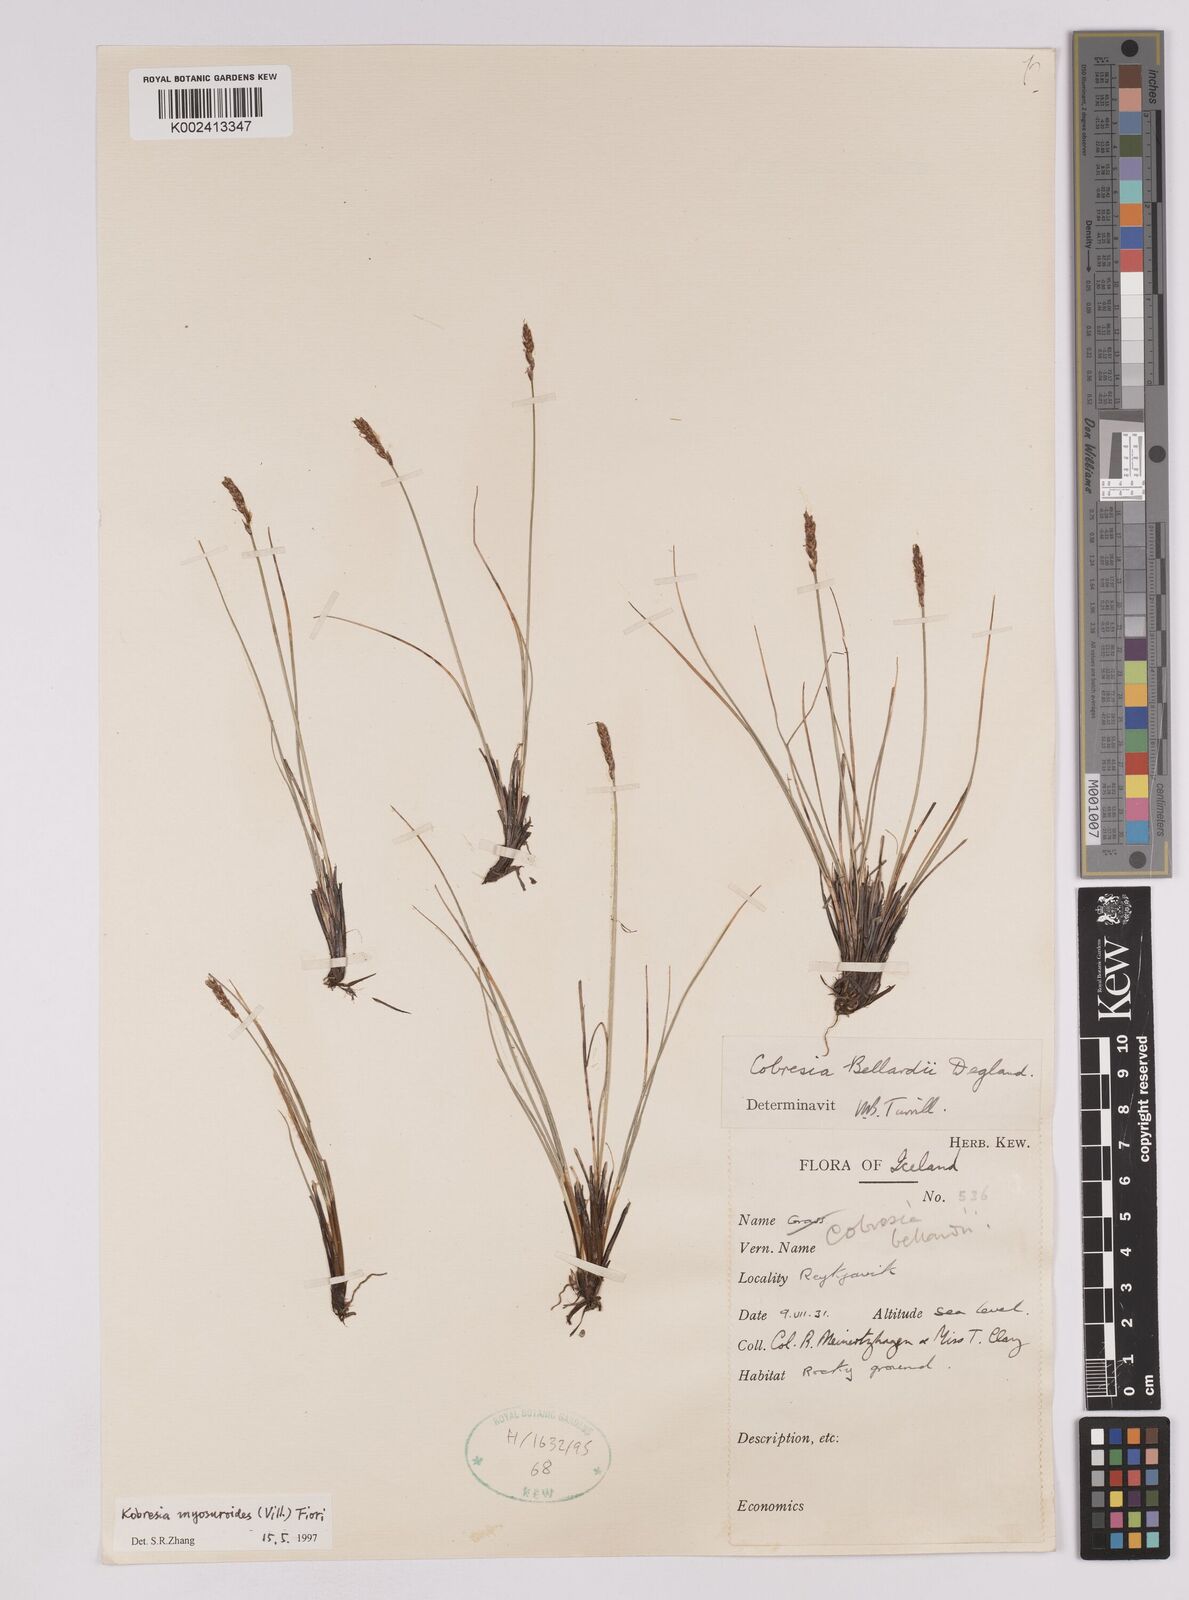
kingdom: Plantae
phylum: Tracheophyta
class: Liliopsida
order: Poales
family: Cyperaceae
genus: Carex
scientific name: Carex myosuroides
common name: Bellard's bog sedge
